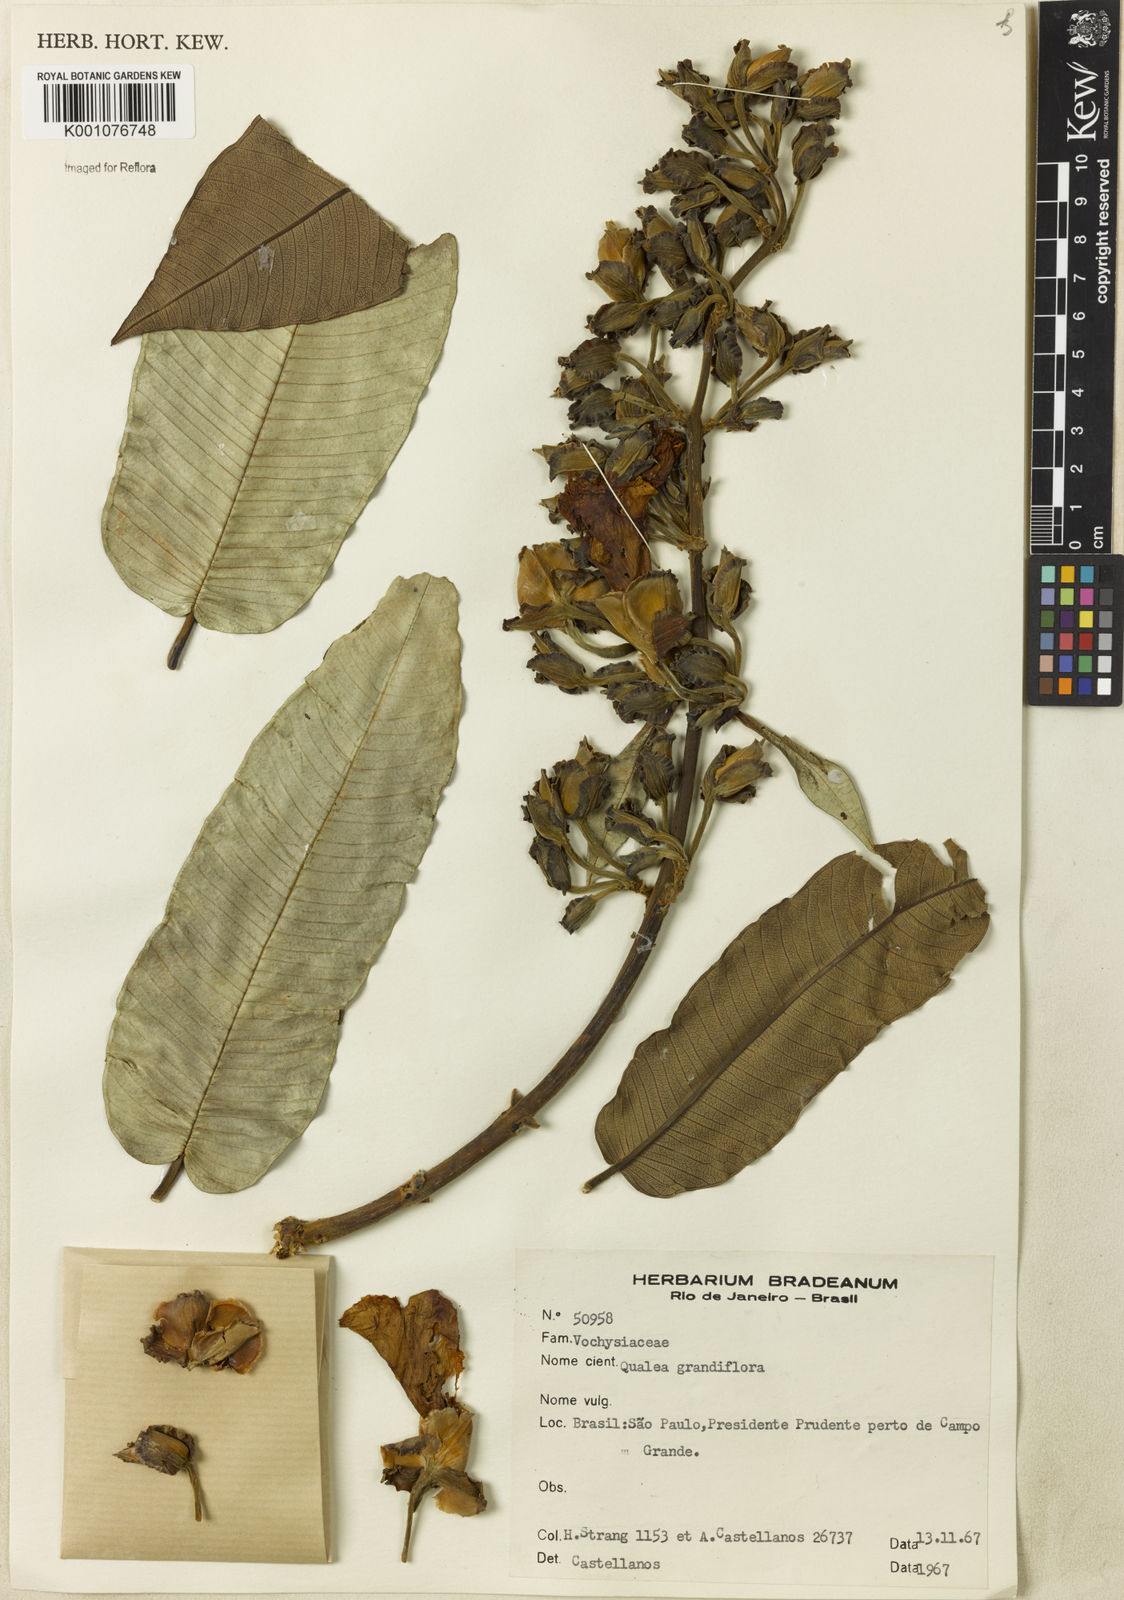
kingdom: Plantae
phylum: Tracheophyta
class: Magnoliopsida
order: Myrtales
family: Vochysiaceae
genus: Qualea
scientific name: Qualea grandiflora
